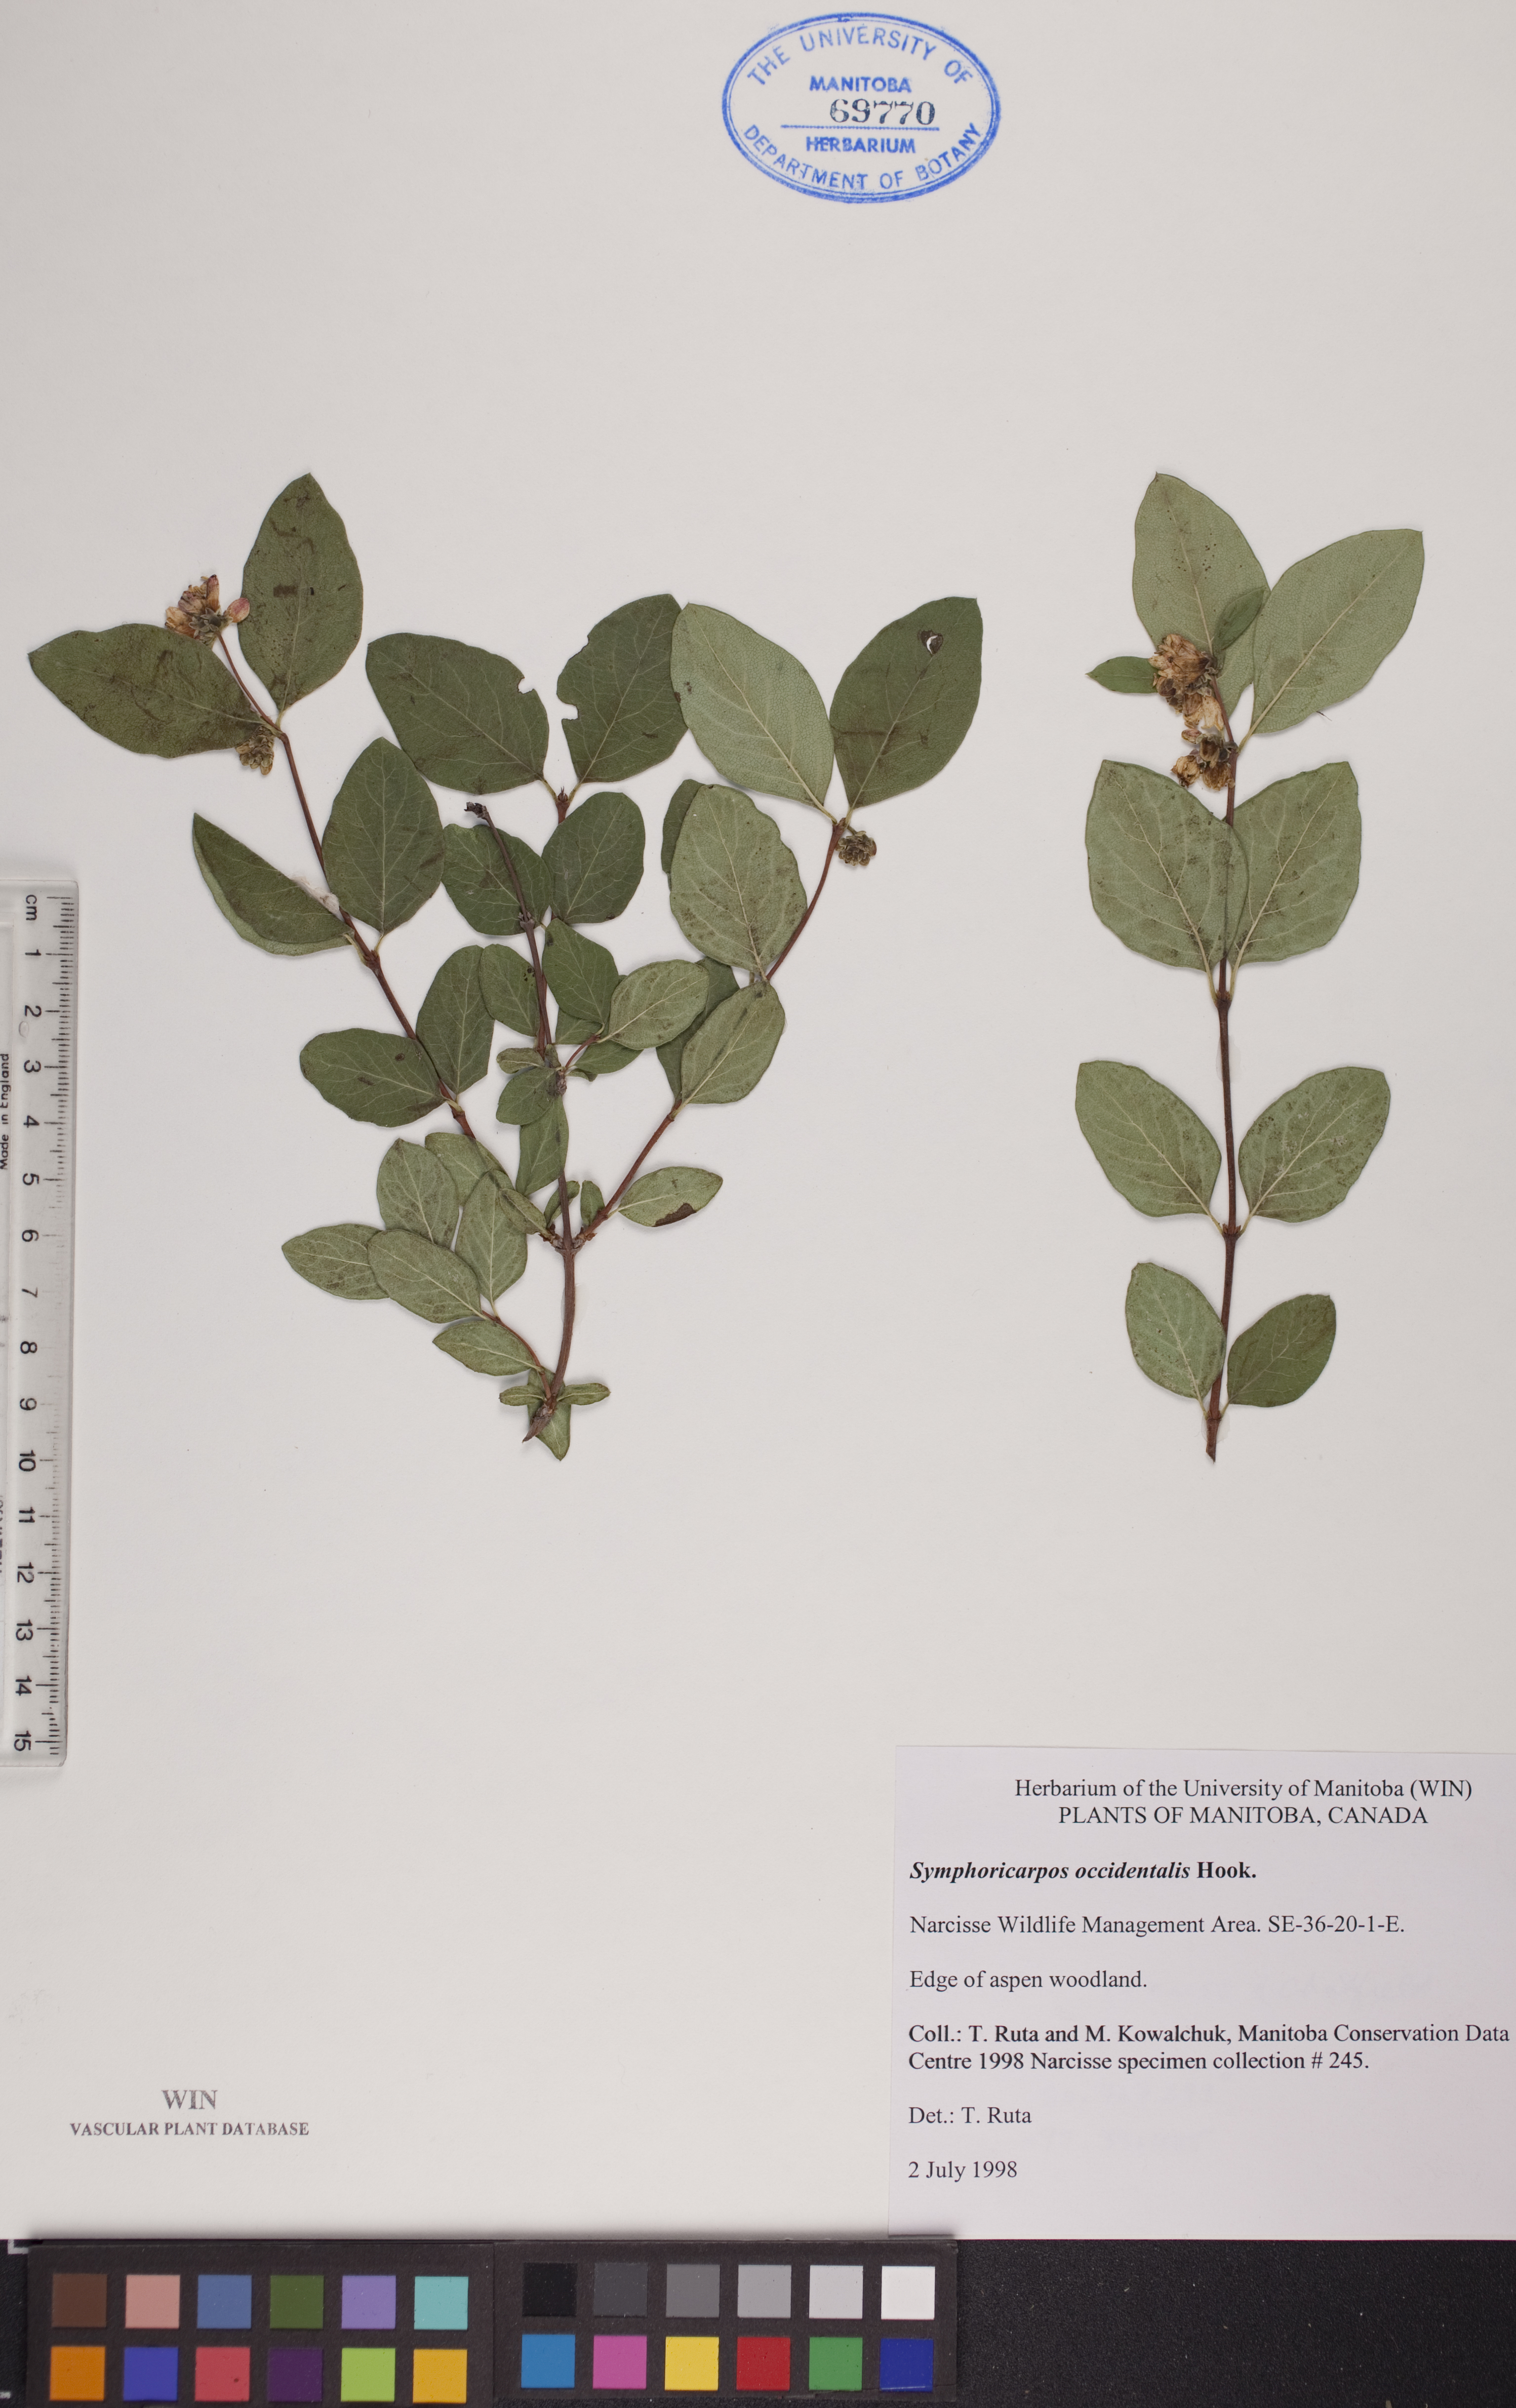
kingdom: Plantae
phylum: Tracheophyta
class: Magnoliopsida
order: Dipsacales
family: Caprifoliaceae
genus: Symphoricarpos
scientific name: Symphoricarpos occidentalis
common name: Wolfberry
